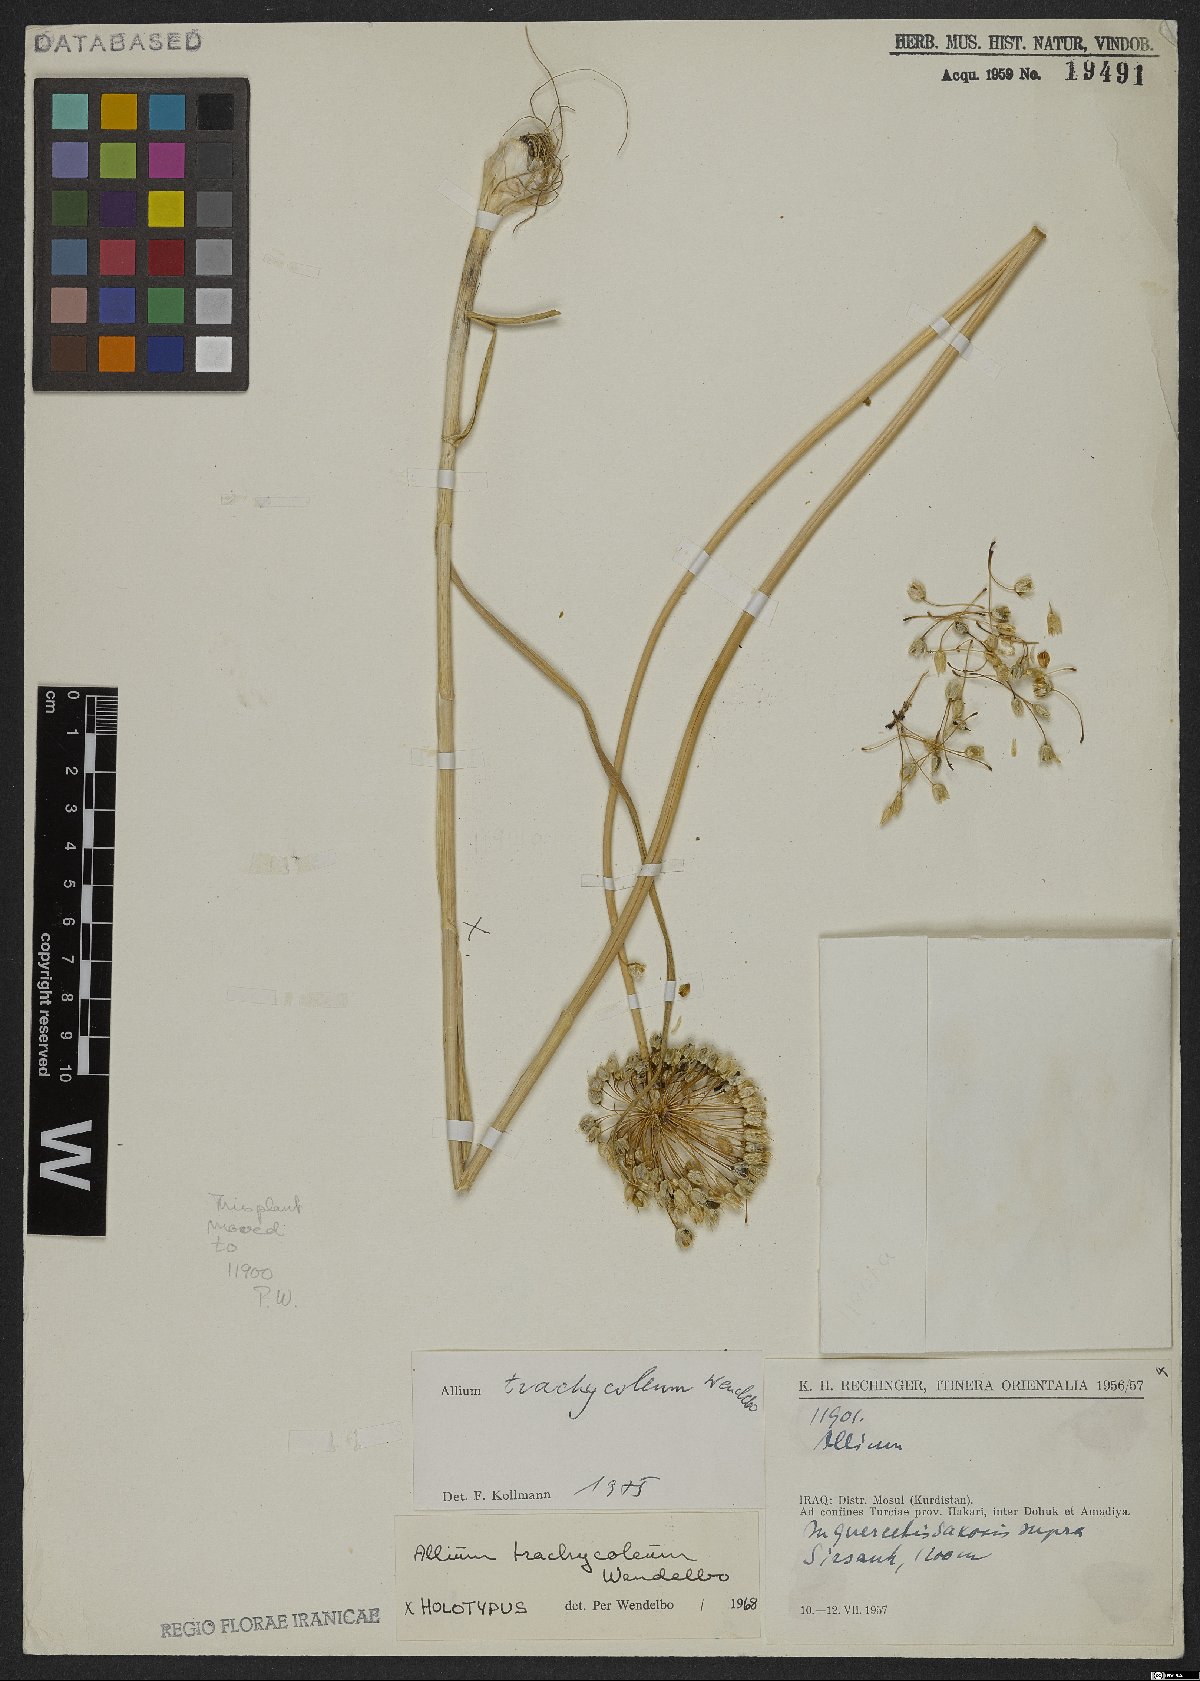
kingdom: Plantae
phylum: Tracheophyta
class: Liliopsida
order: Asparagales
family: Amaryllidaceae
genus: Allium
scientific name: Allium trachycoleum
